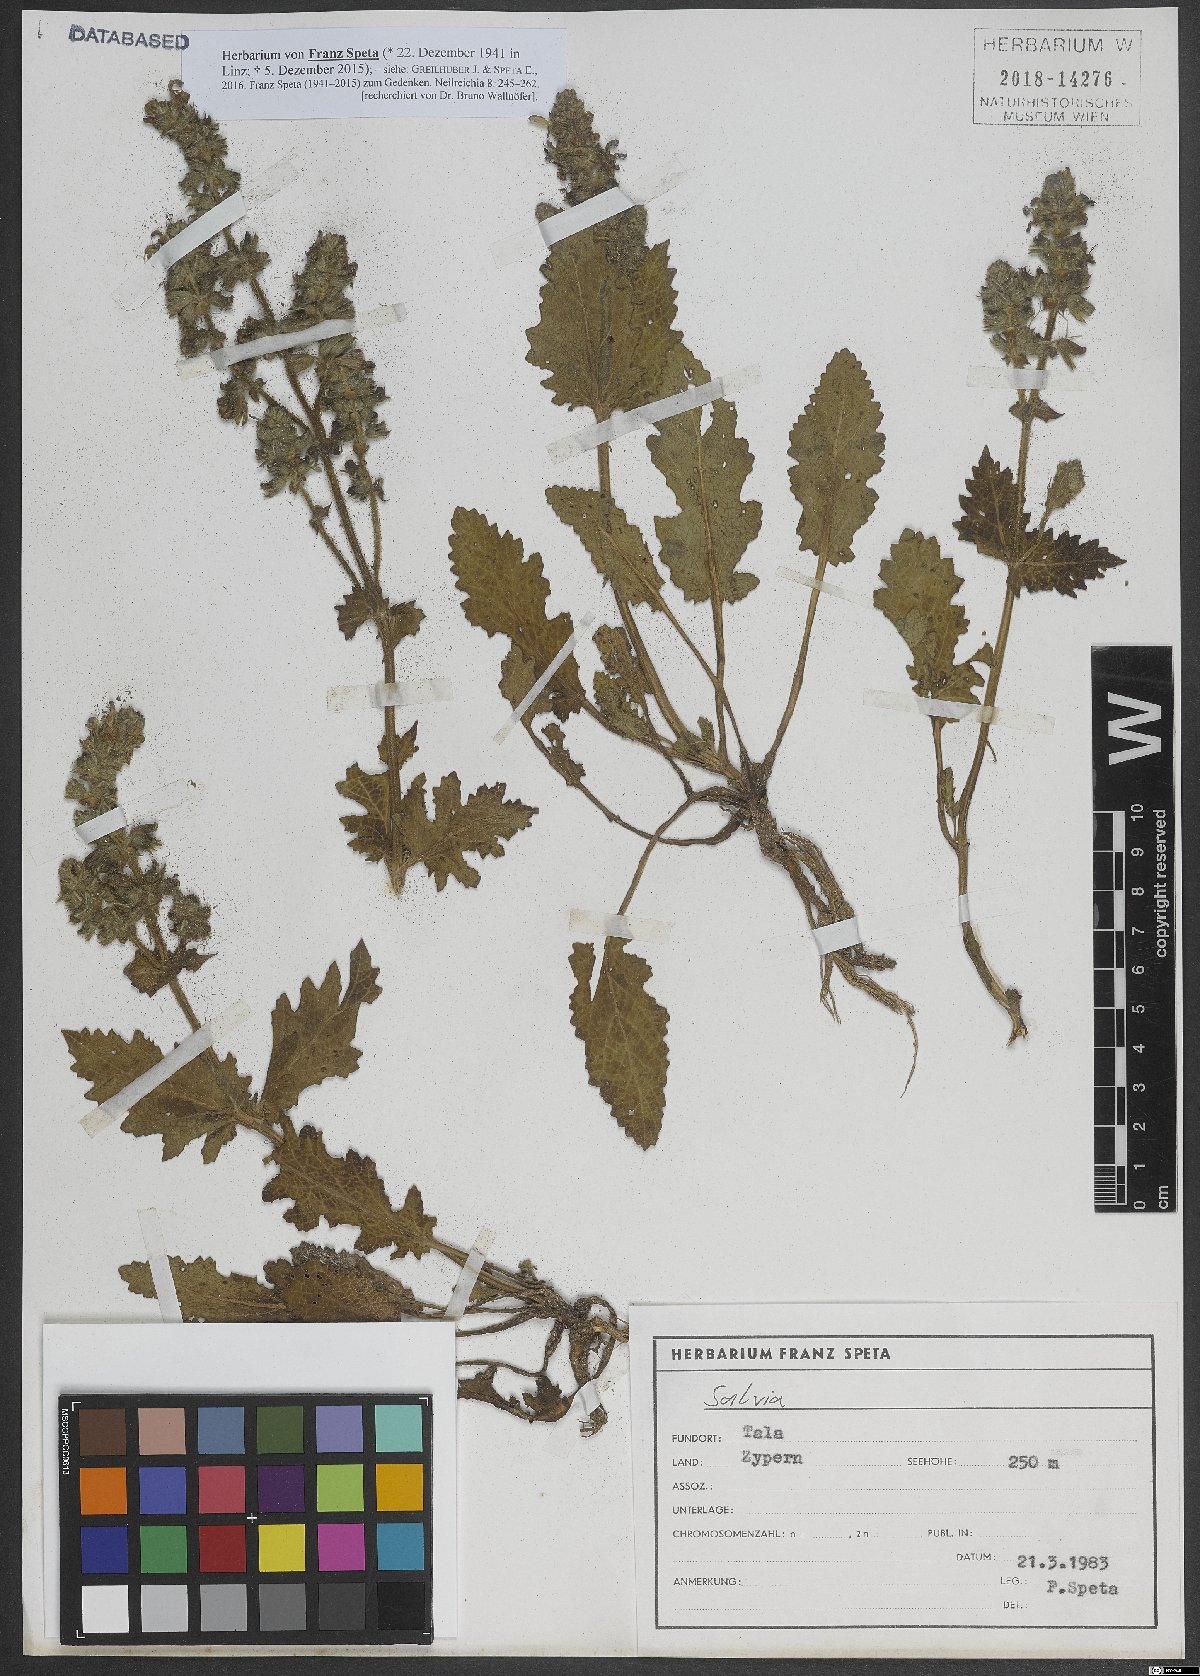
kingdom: Plantae
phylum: Tracheophyta
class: Magnoliopsida
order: Lamiales
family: Lamiaceae
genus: Salvia
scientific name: Salvia
